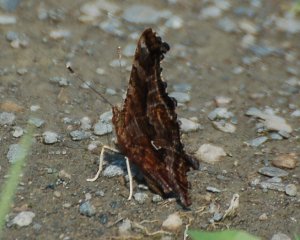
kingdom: Animalia
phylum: Arthropoda
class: Insecta
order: Lepidoptera
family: Nymphalidae
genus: Polygonia
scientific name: Polygonia comma
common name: Eastern Comma
